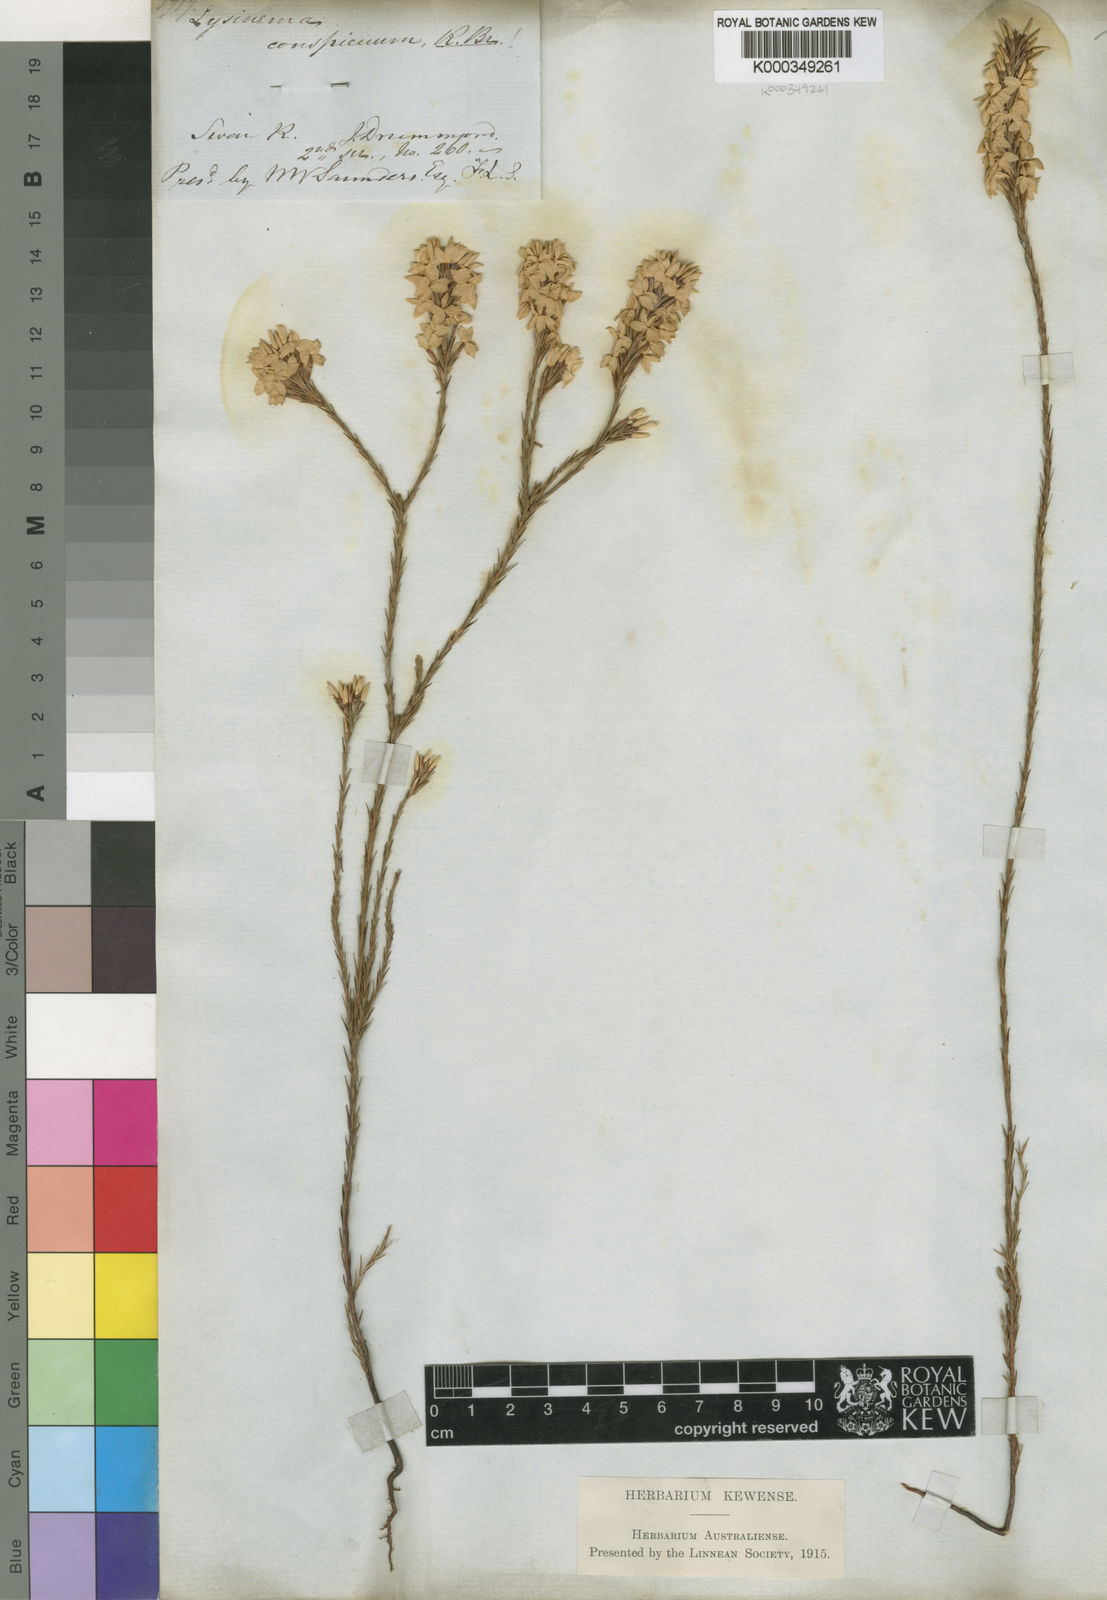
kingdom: Plantae
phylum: Tracheophyta
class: Magnoliopsida
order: Ericales
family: Ericaceae
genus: Lysinema
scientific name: Lysinema conspicuum
